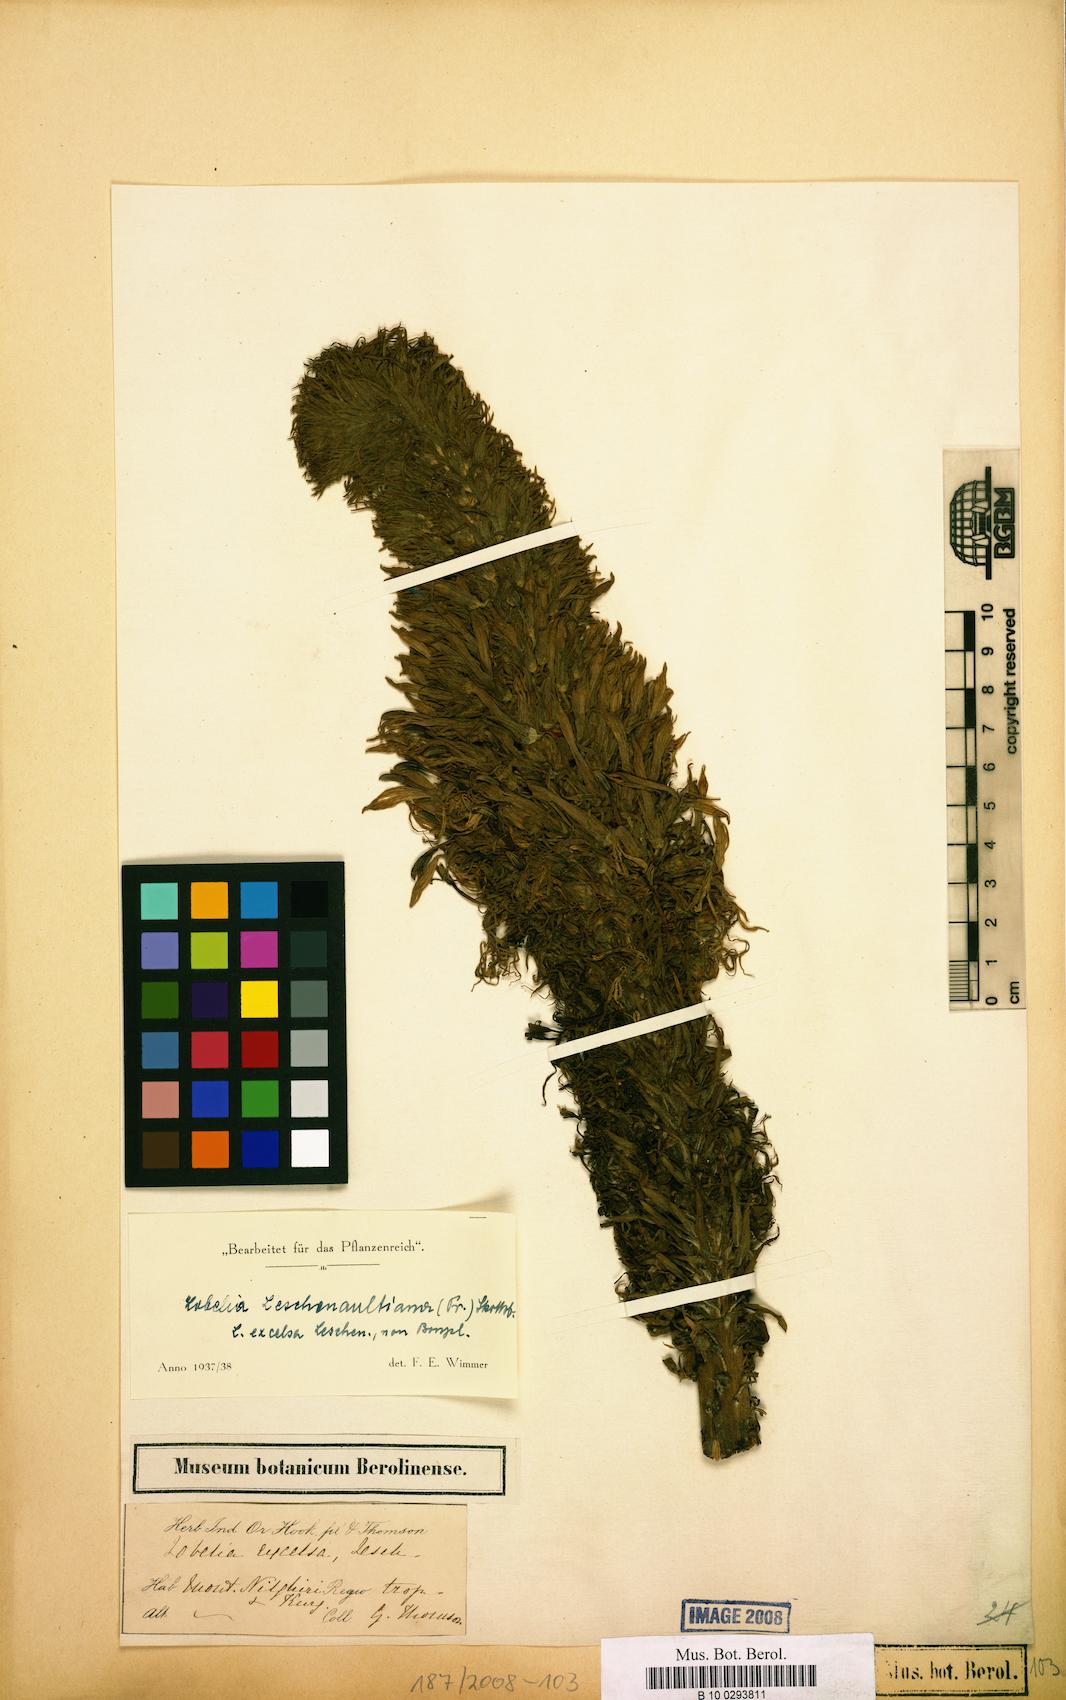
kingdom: Plantae
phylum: Tracheophyta
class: Magnoliopsida
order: Asterales
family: Campanulaceae
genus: Lobelia
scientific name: Lobelia leschenaultiana
